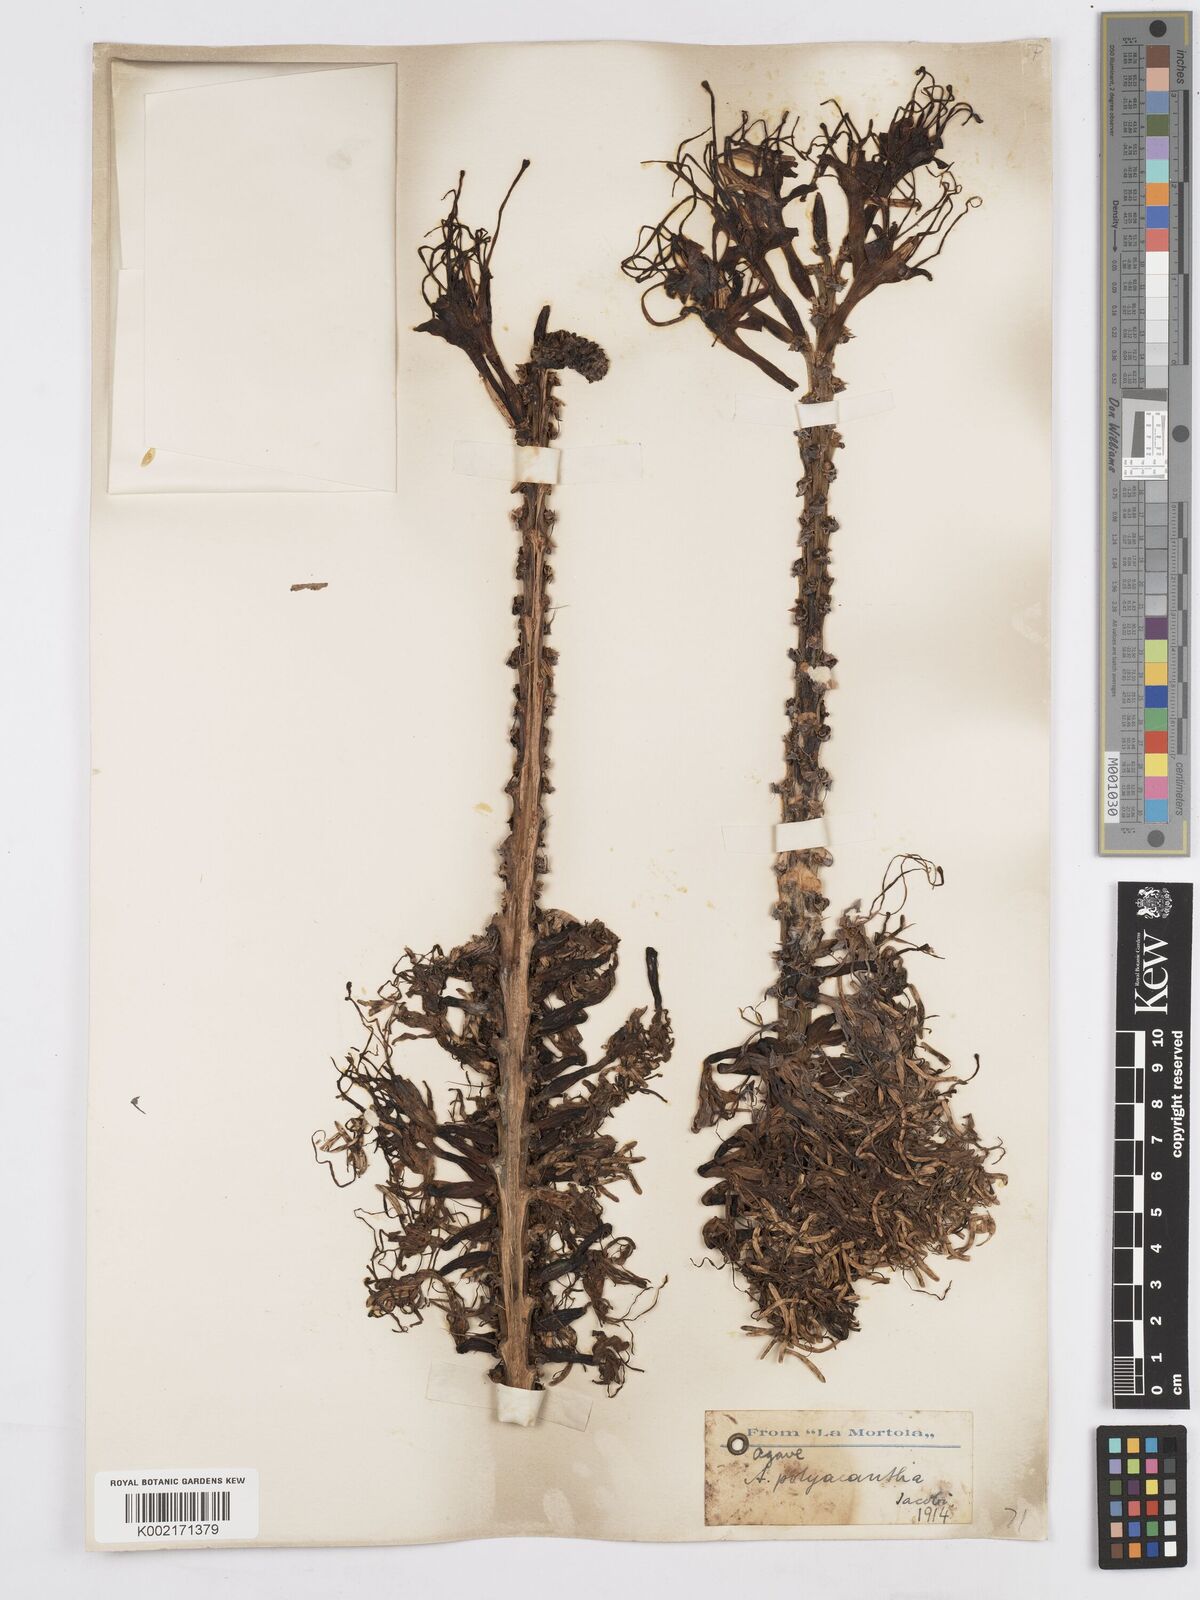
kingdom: Plantae
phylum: Tracheophyta
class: Liliopsida
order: Asparagales
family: Asparagaceae
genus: Agave
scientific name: Agave polyacantha
